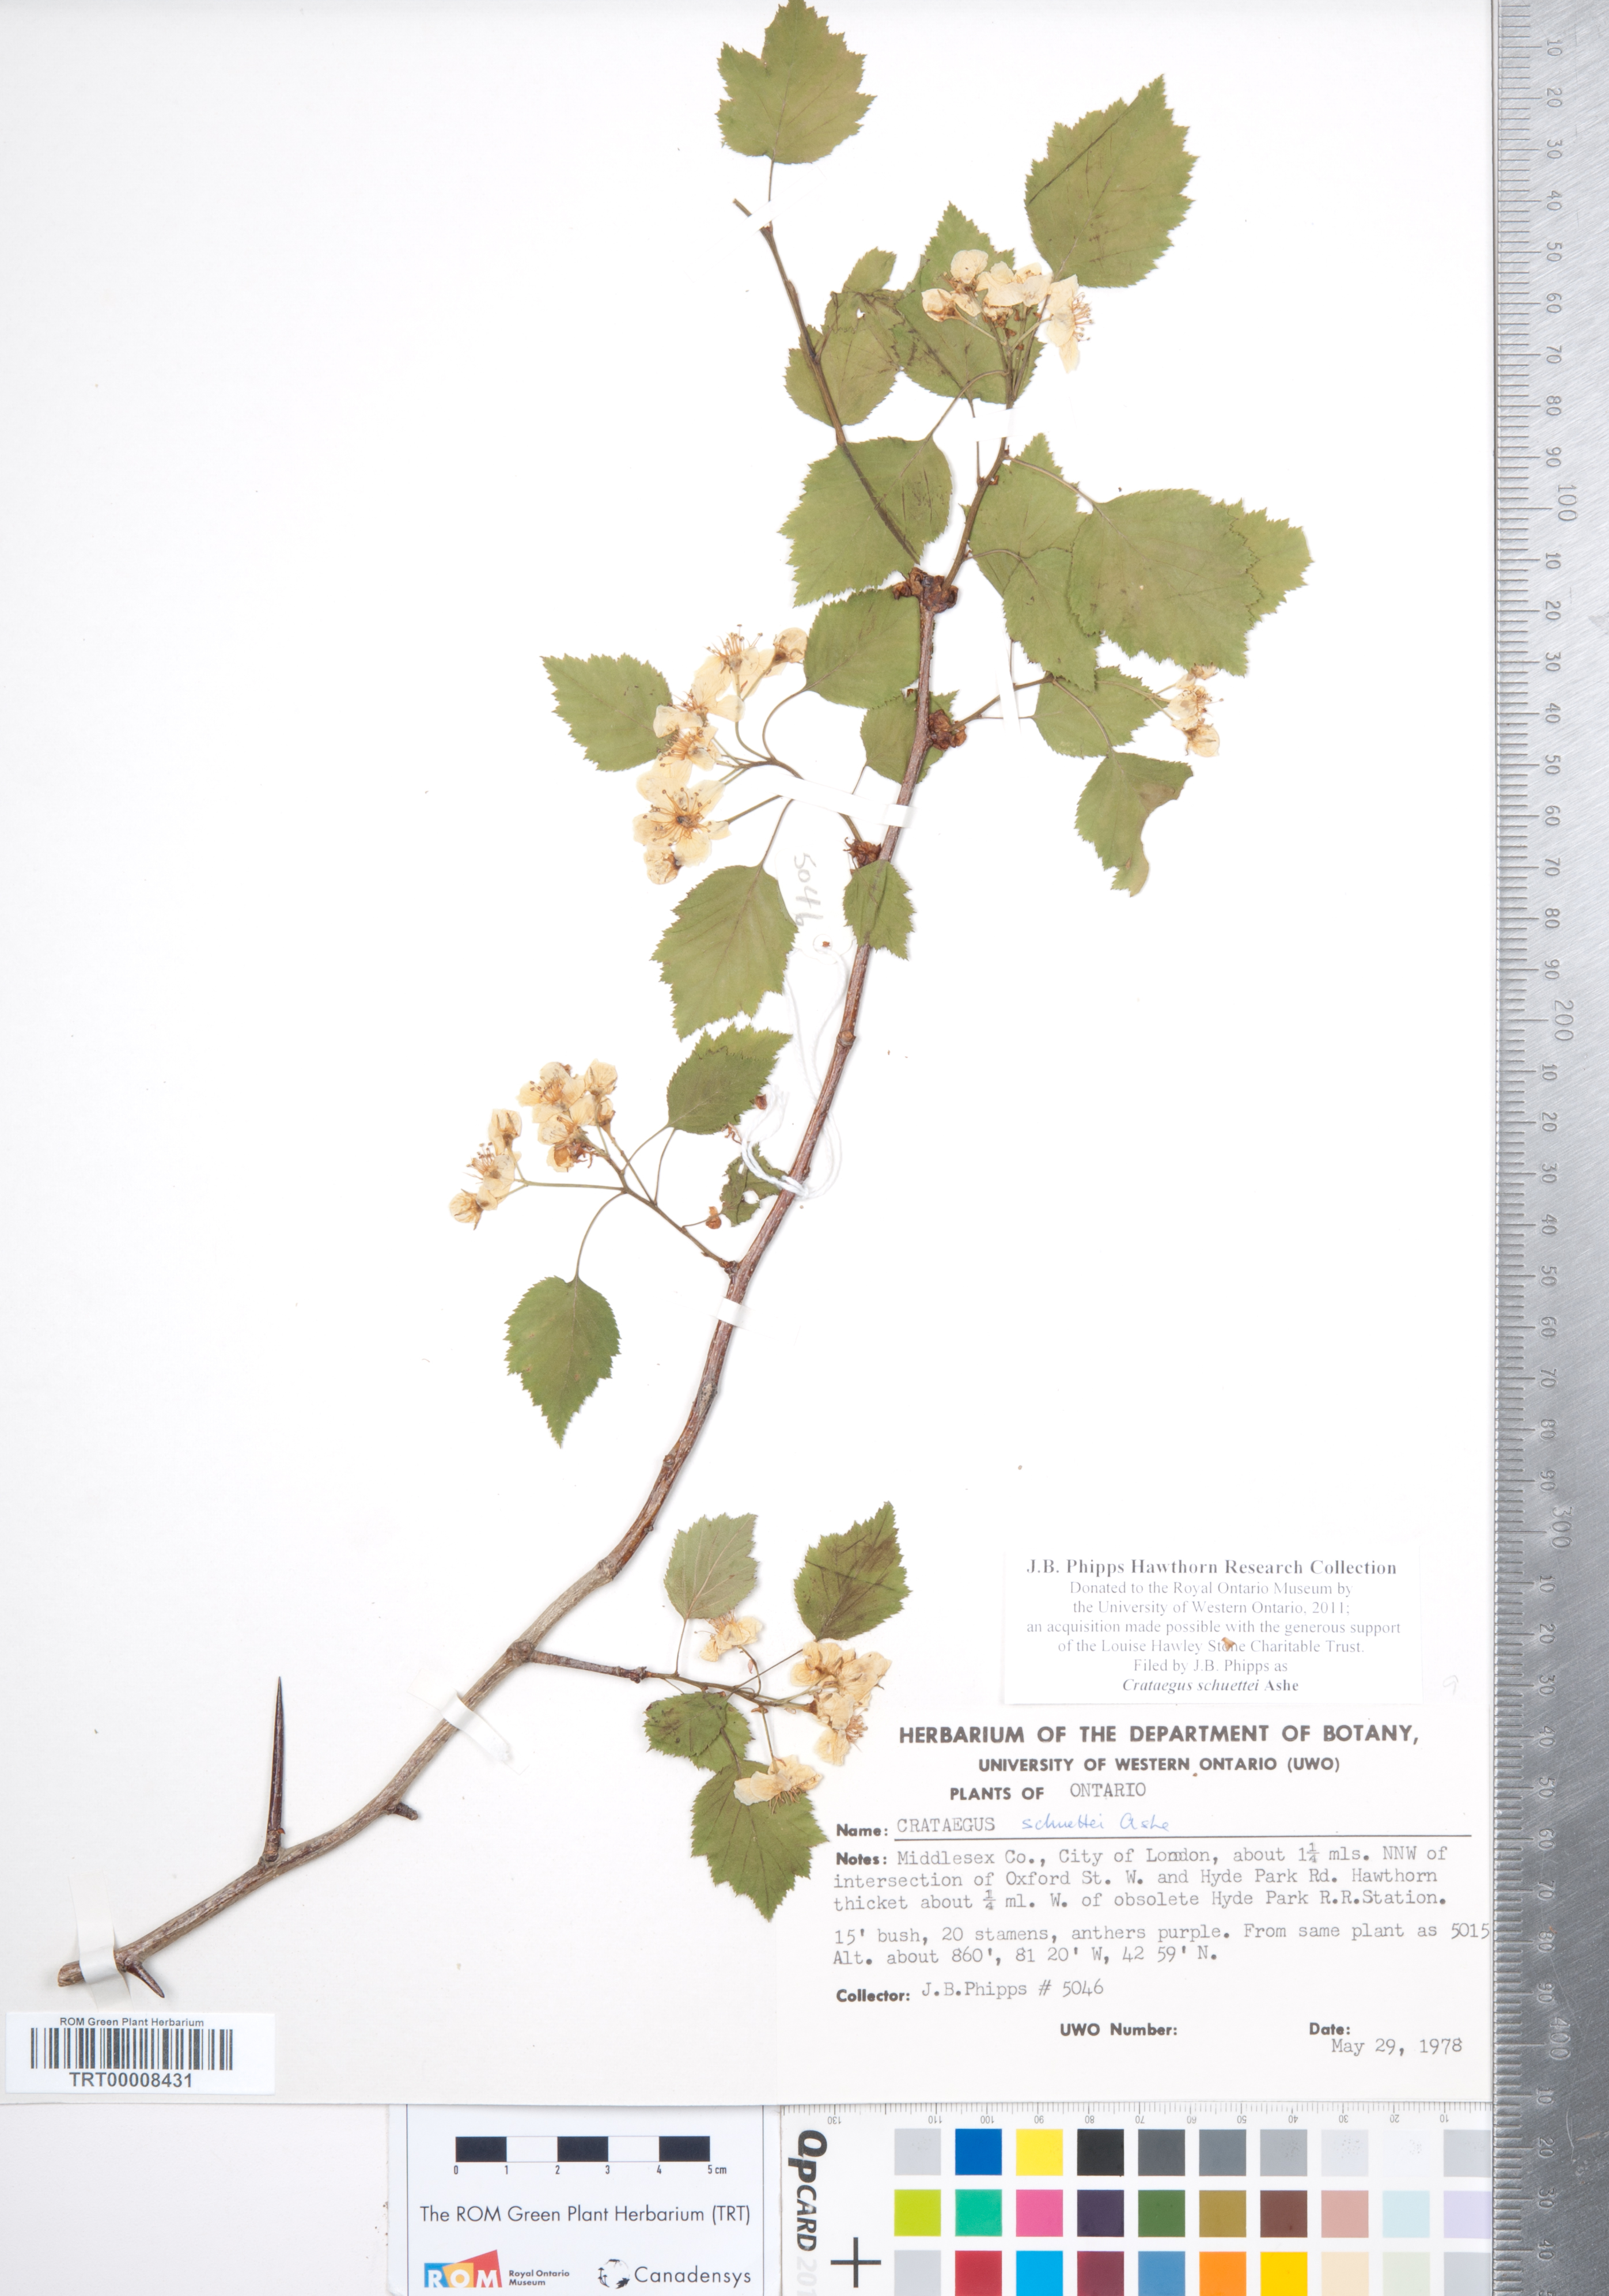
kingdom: Plantae
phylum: Tracheophyta
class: Magnoliopsida
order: Rosales
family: Rosaceae
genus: Crataegus
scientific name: Crataegus schuettei
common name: Schuette's hawthorn
